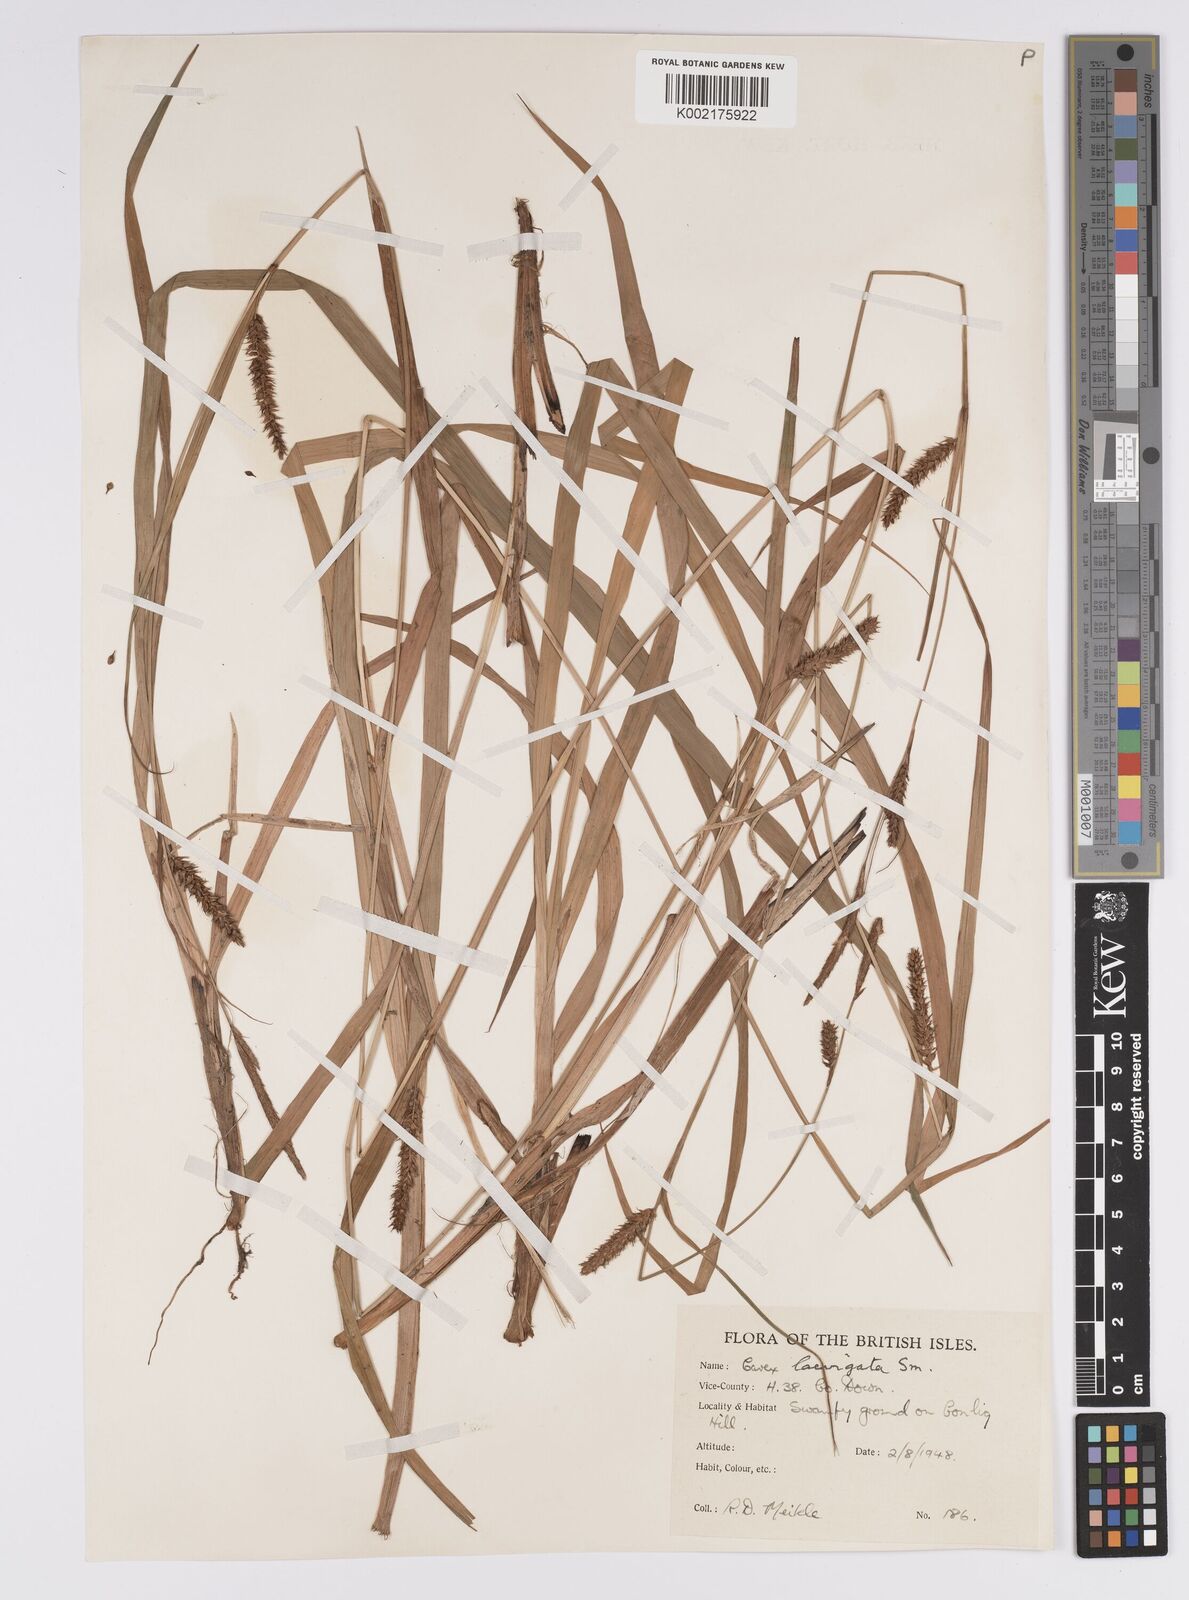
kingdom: Plantae
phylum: Tracheophyta
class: Liliopsida
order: Poales
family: Cyperaceae
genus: Carex
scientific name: Carex laevigata
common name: Smooth-stalked sedge
